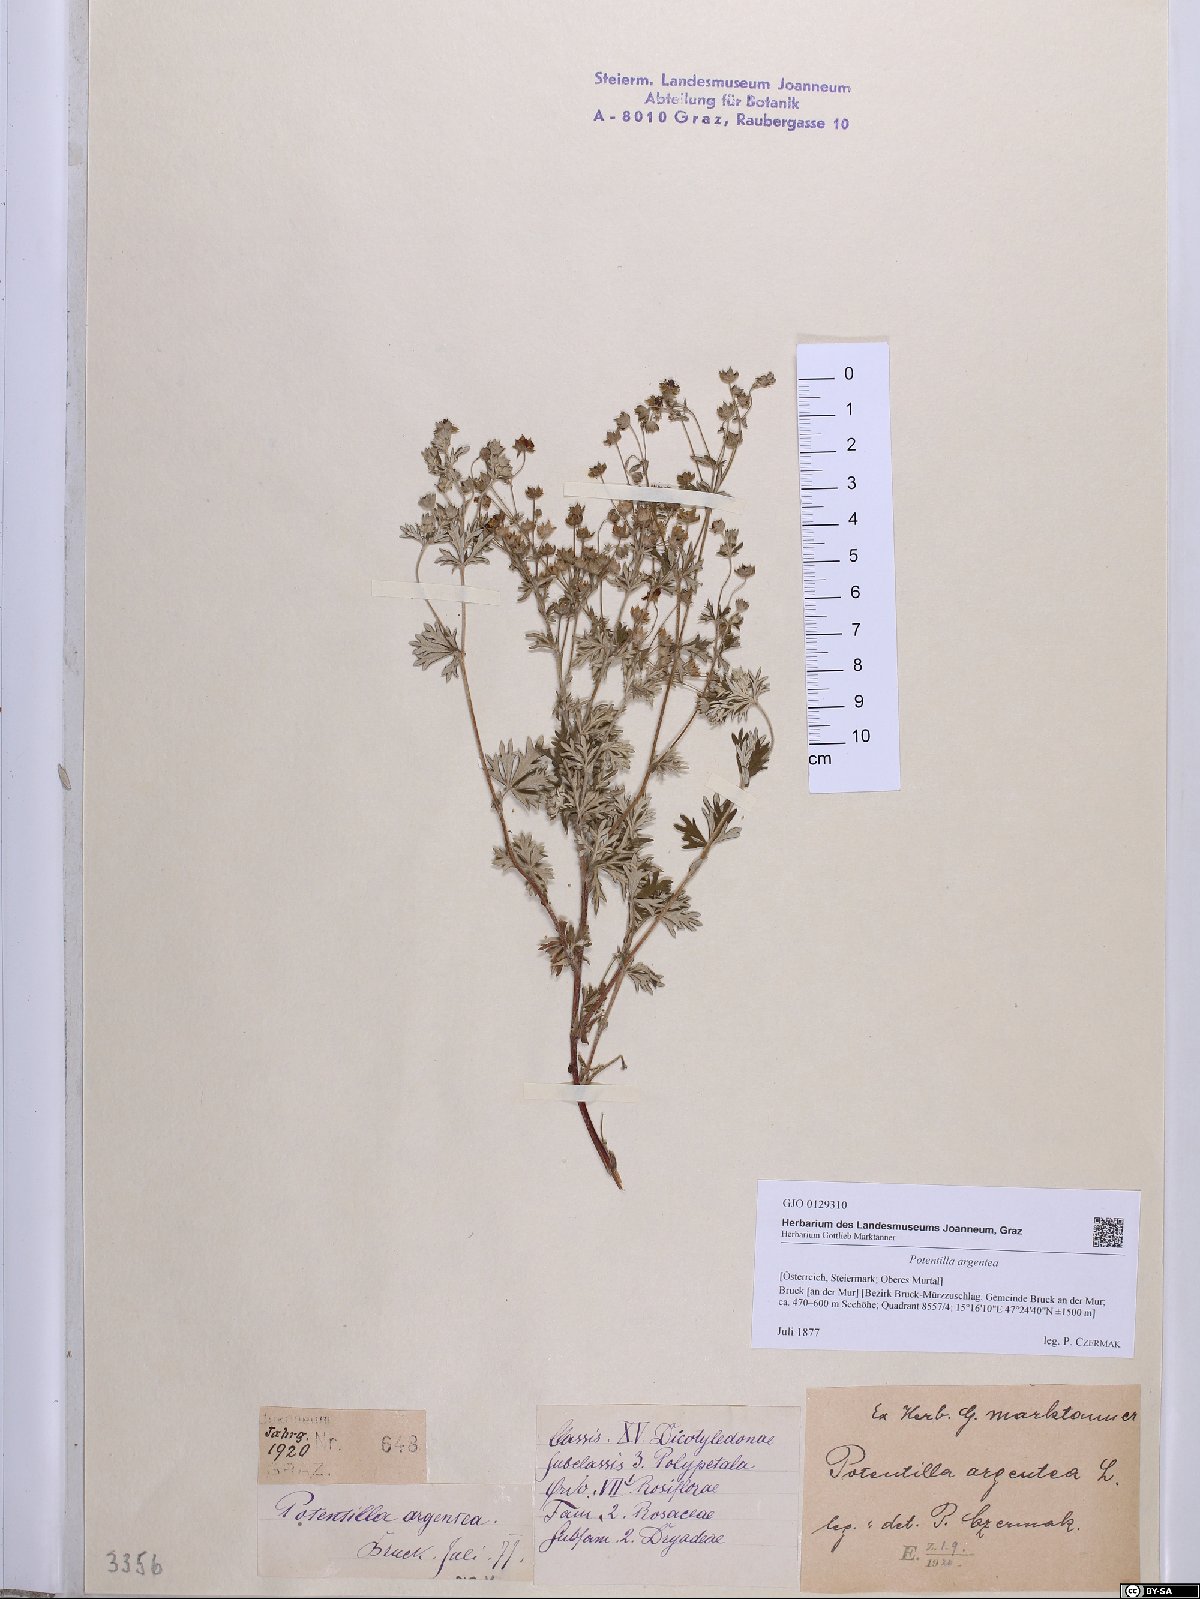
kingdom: Plantae
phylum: Tracheophyta
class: Magnoliopsida
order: Rosales
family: Rosaceae
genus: Potentilla
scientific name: Potentilla argentea
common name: Hoary cinquefoil
